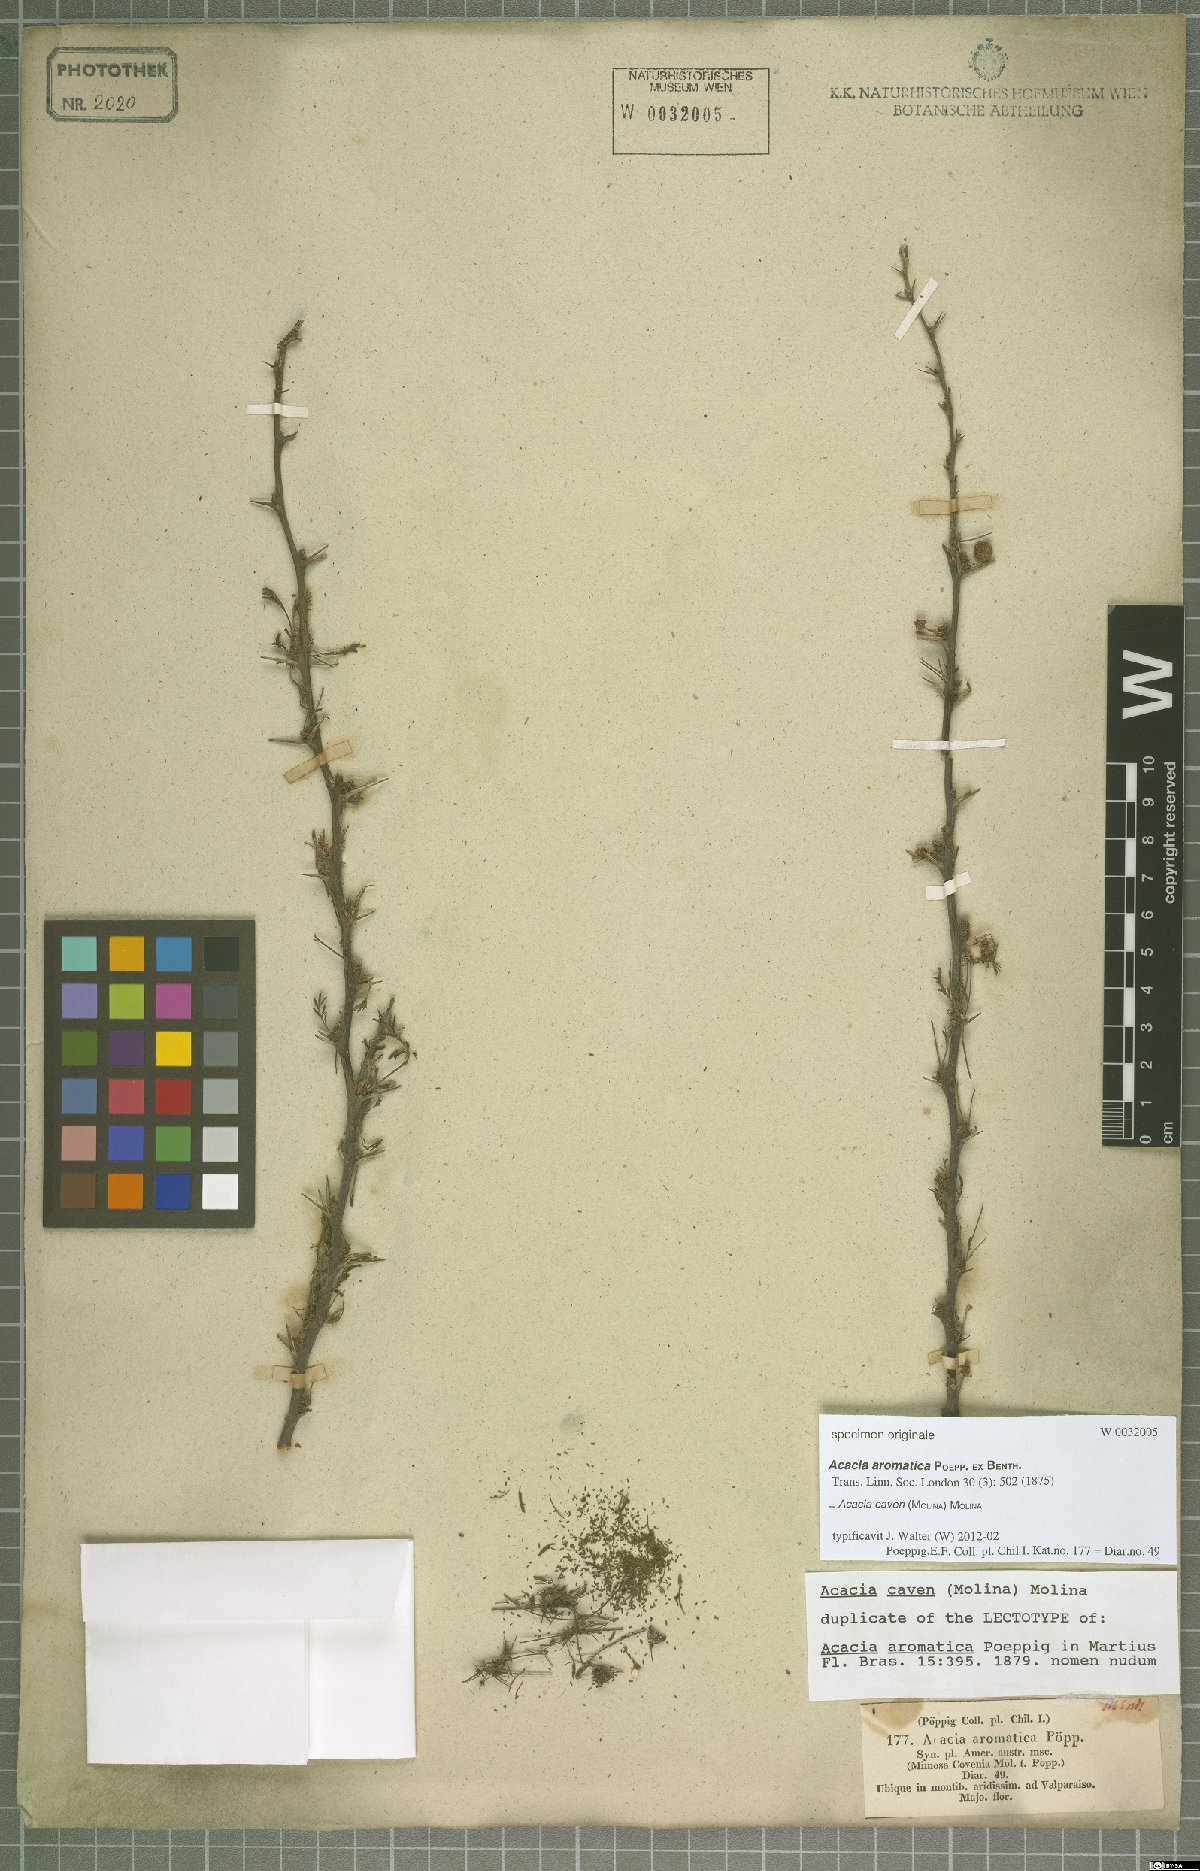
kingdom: Plantae
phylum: Tracheophyta
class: Magnoliopsida
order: Fabales
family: Fabaceae
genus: Vachellia
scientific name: Vachellia caven
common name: Roman cassie
